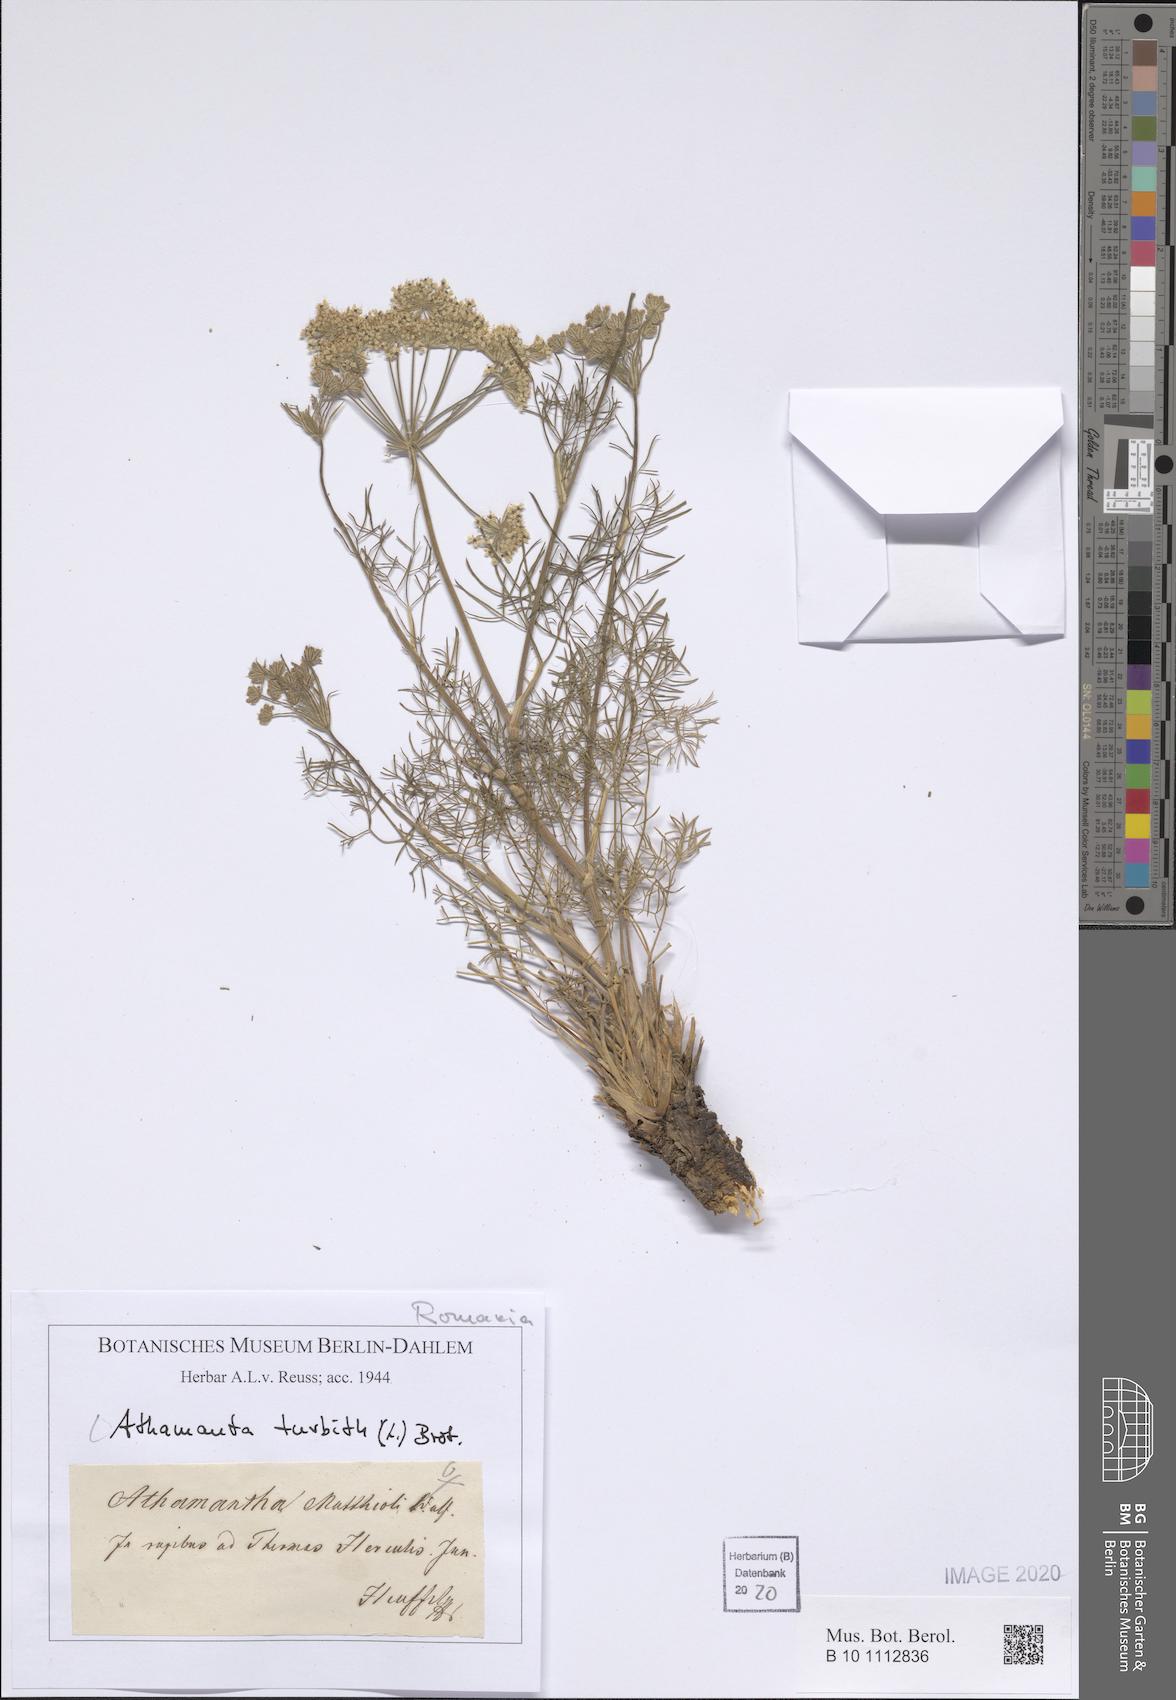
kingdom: Plantae
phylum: Tracheophyta
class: Magnoliopsida
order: Apiales
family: Apiaceae
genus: Athamanta
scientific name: Athamanta turbith
